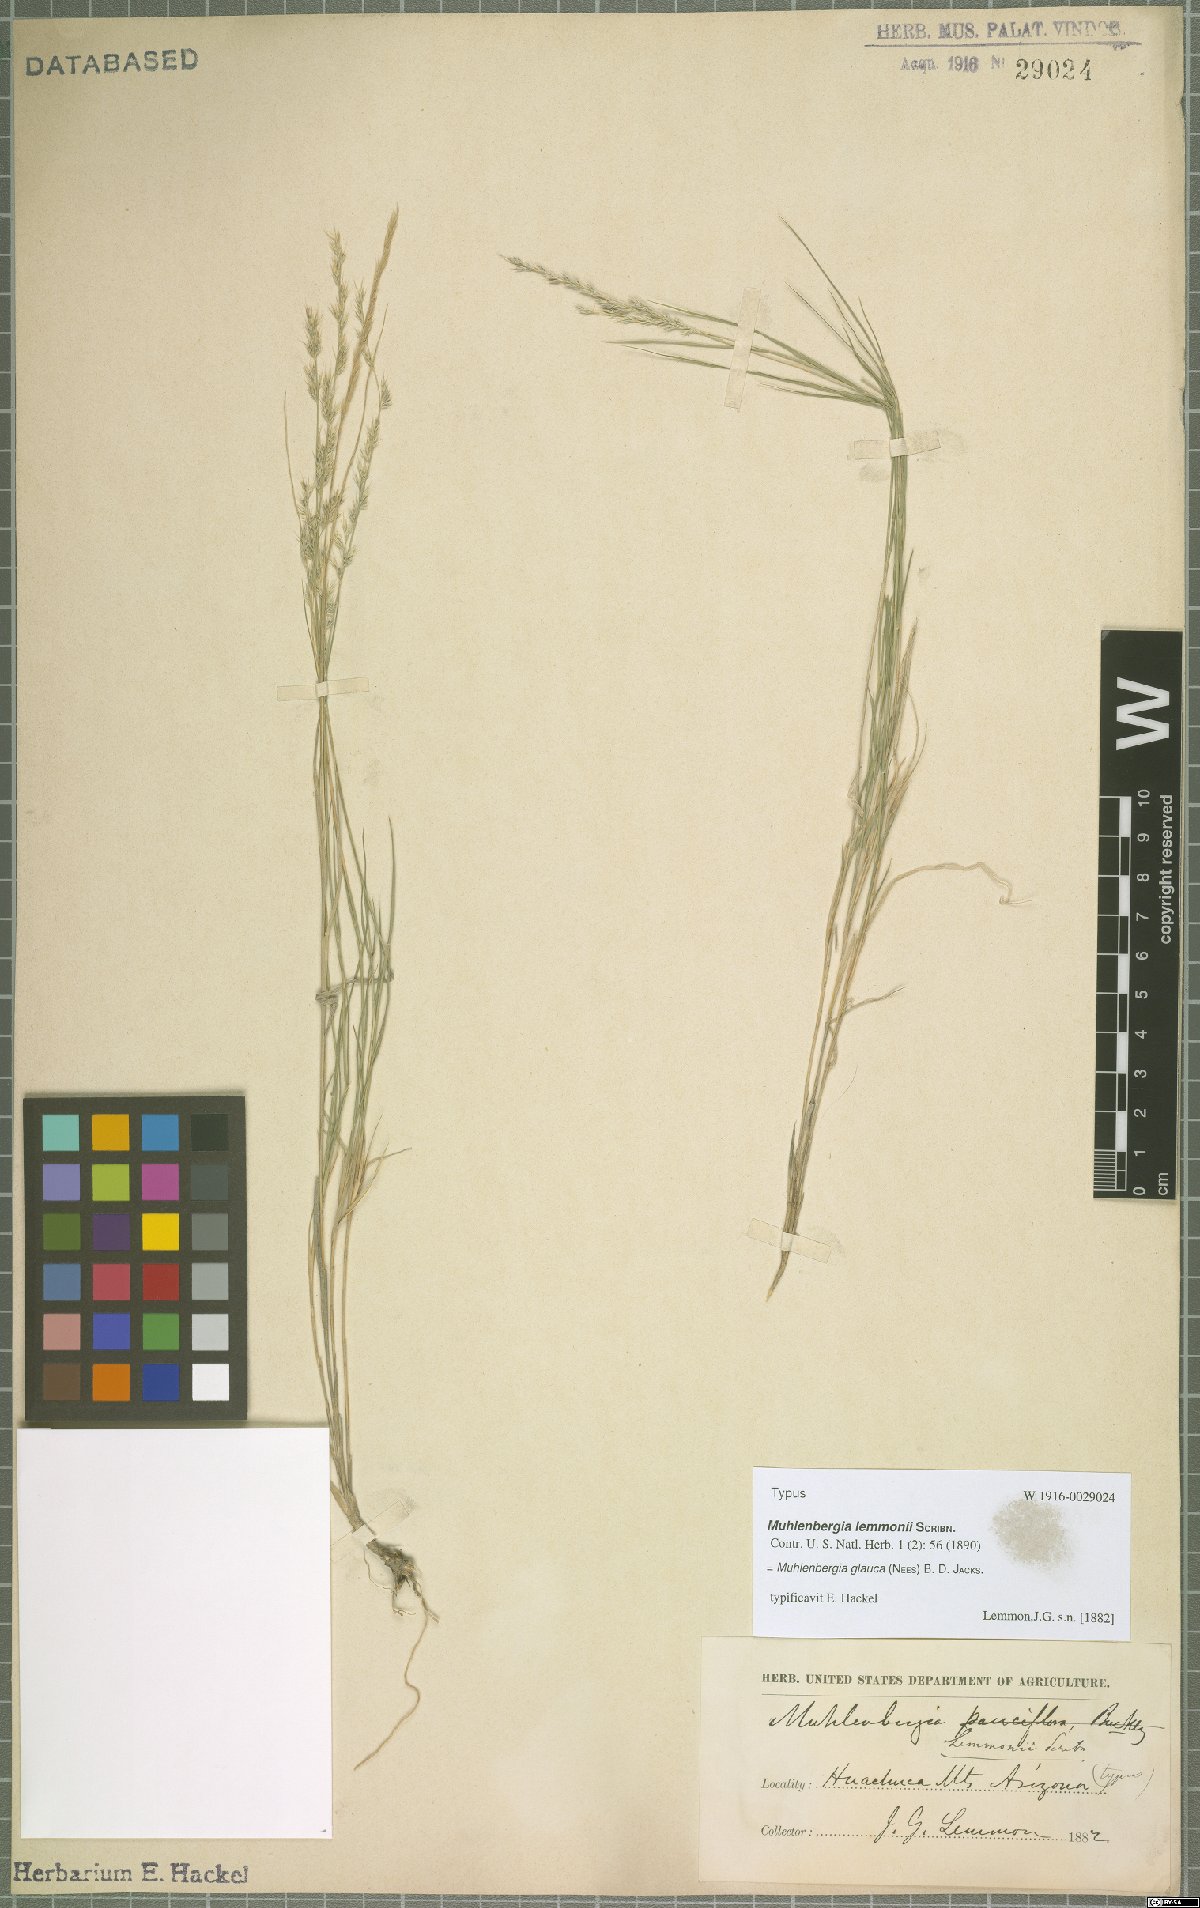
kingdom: Plantae
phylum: Tracheophyta
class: Liliopsida
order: Poales
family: Poaceae
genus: Muhlenbergia
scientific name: Muhlenbergia glauca
